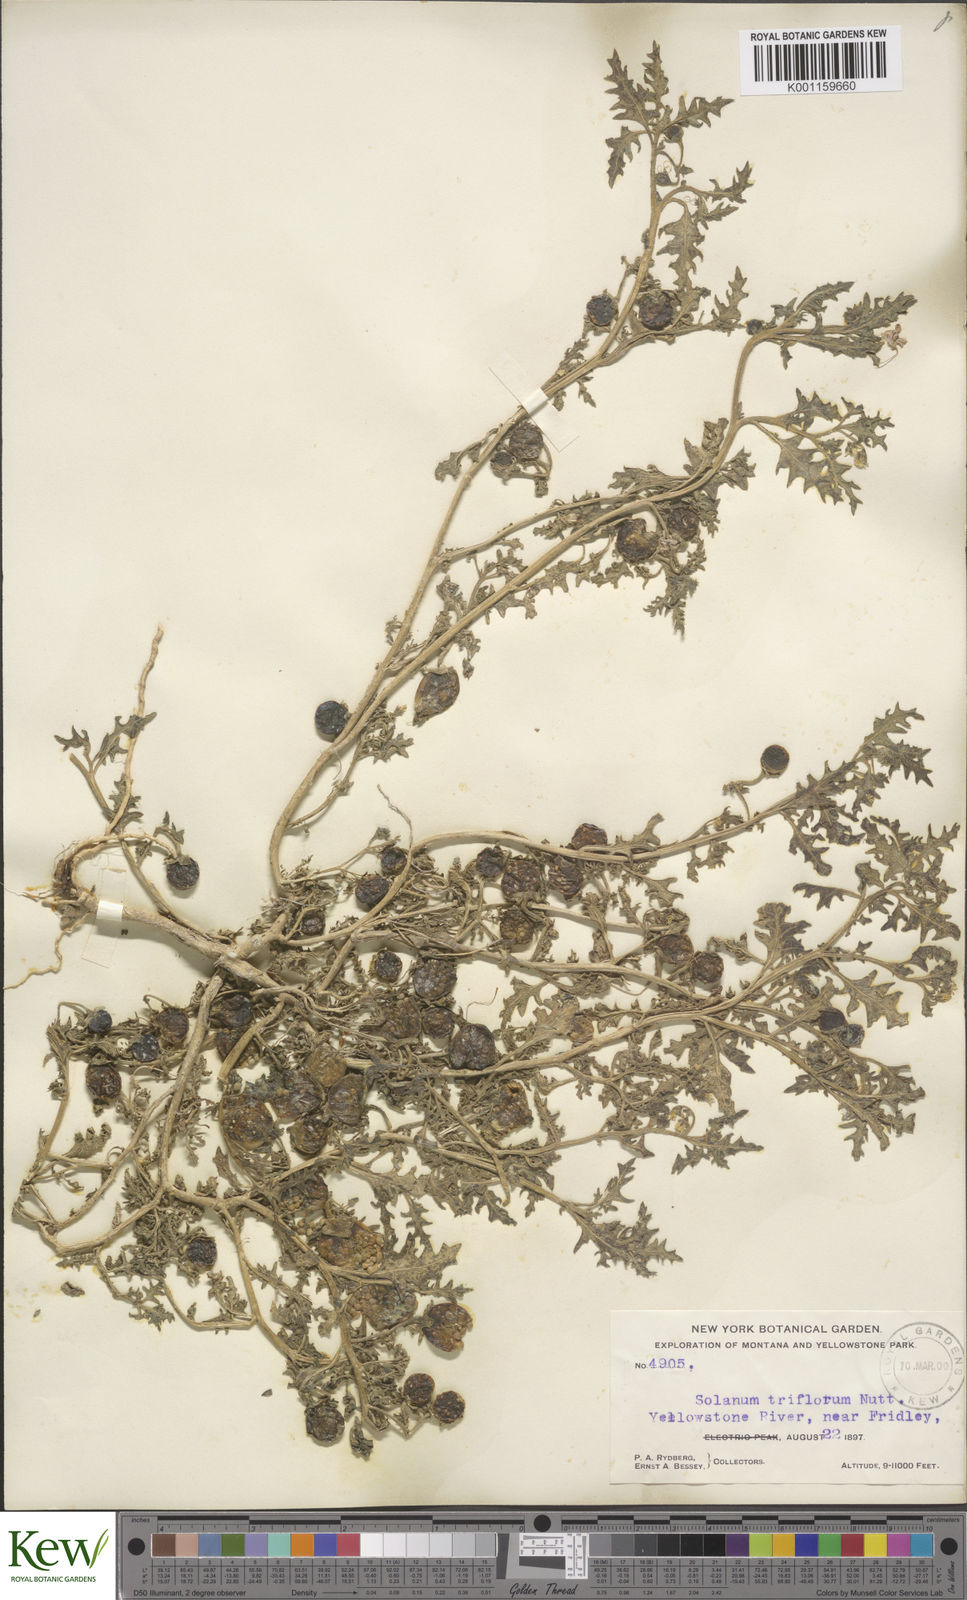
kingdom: Plantae
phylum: Tracheophyta
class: Magnoliopsida
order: Solanales
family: Solanaceae
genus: Solanum
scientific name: Solanum triflorum
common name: Small nightshade
